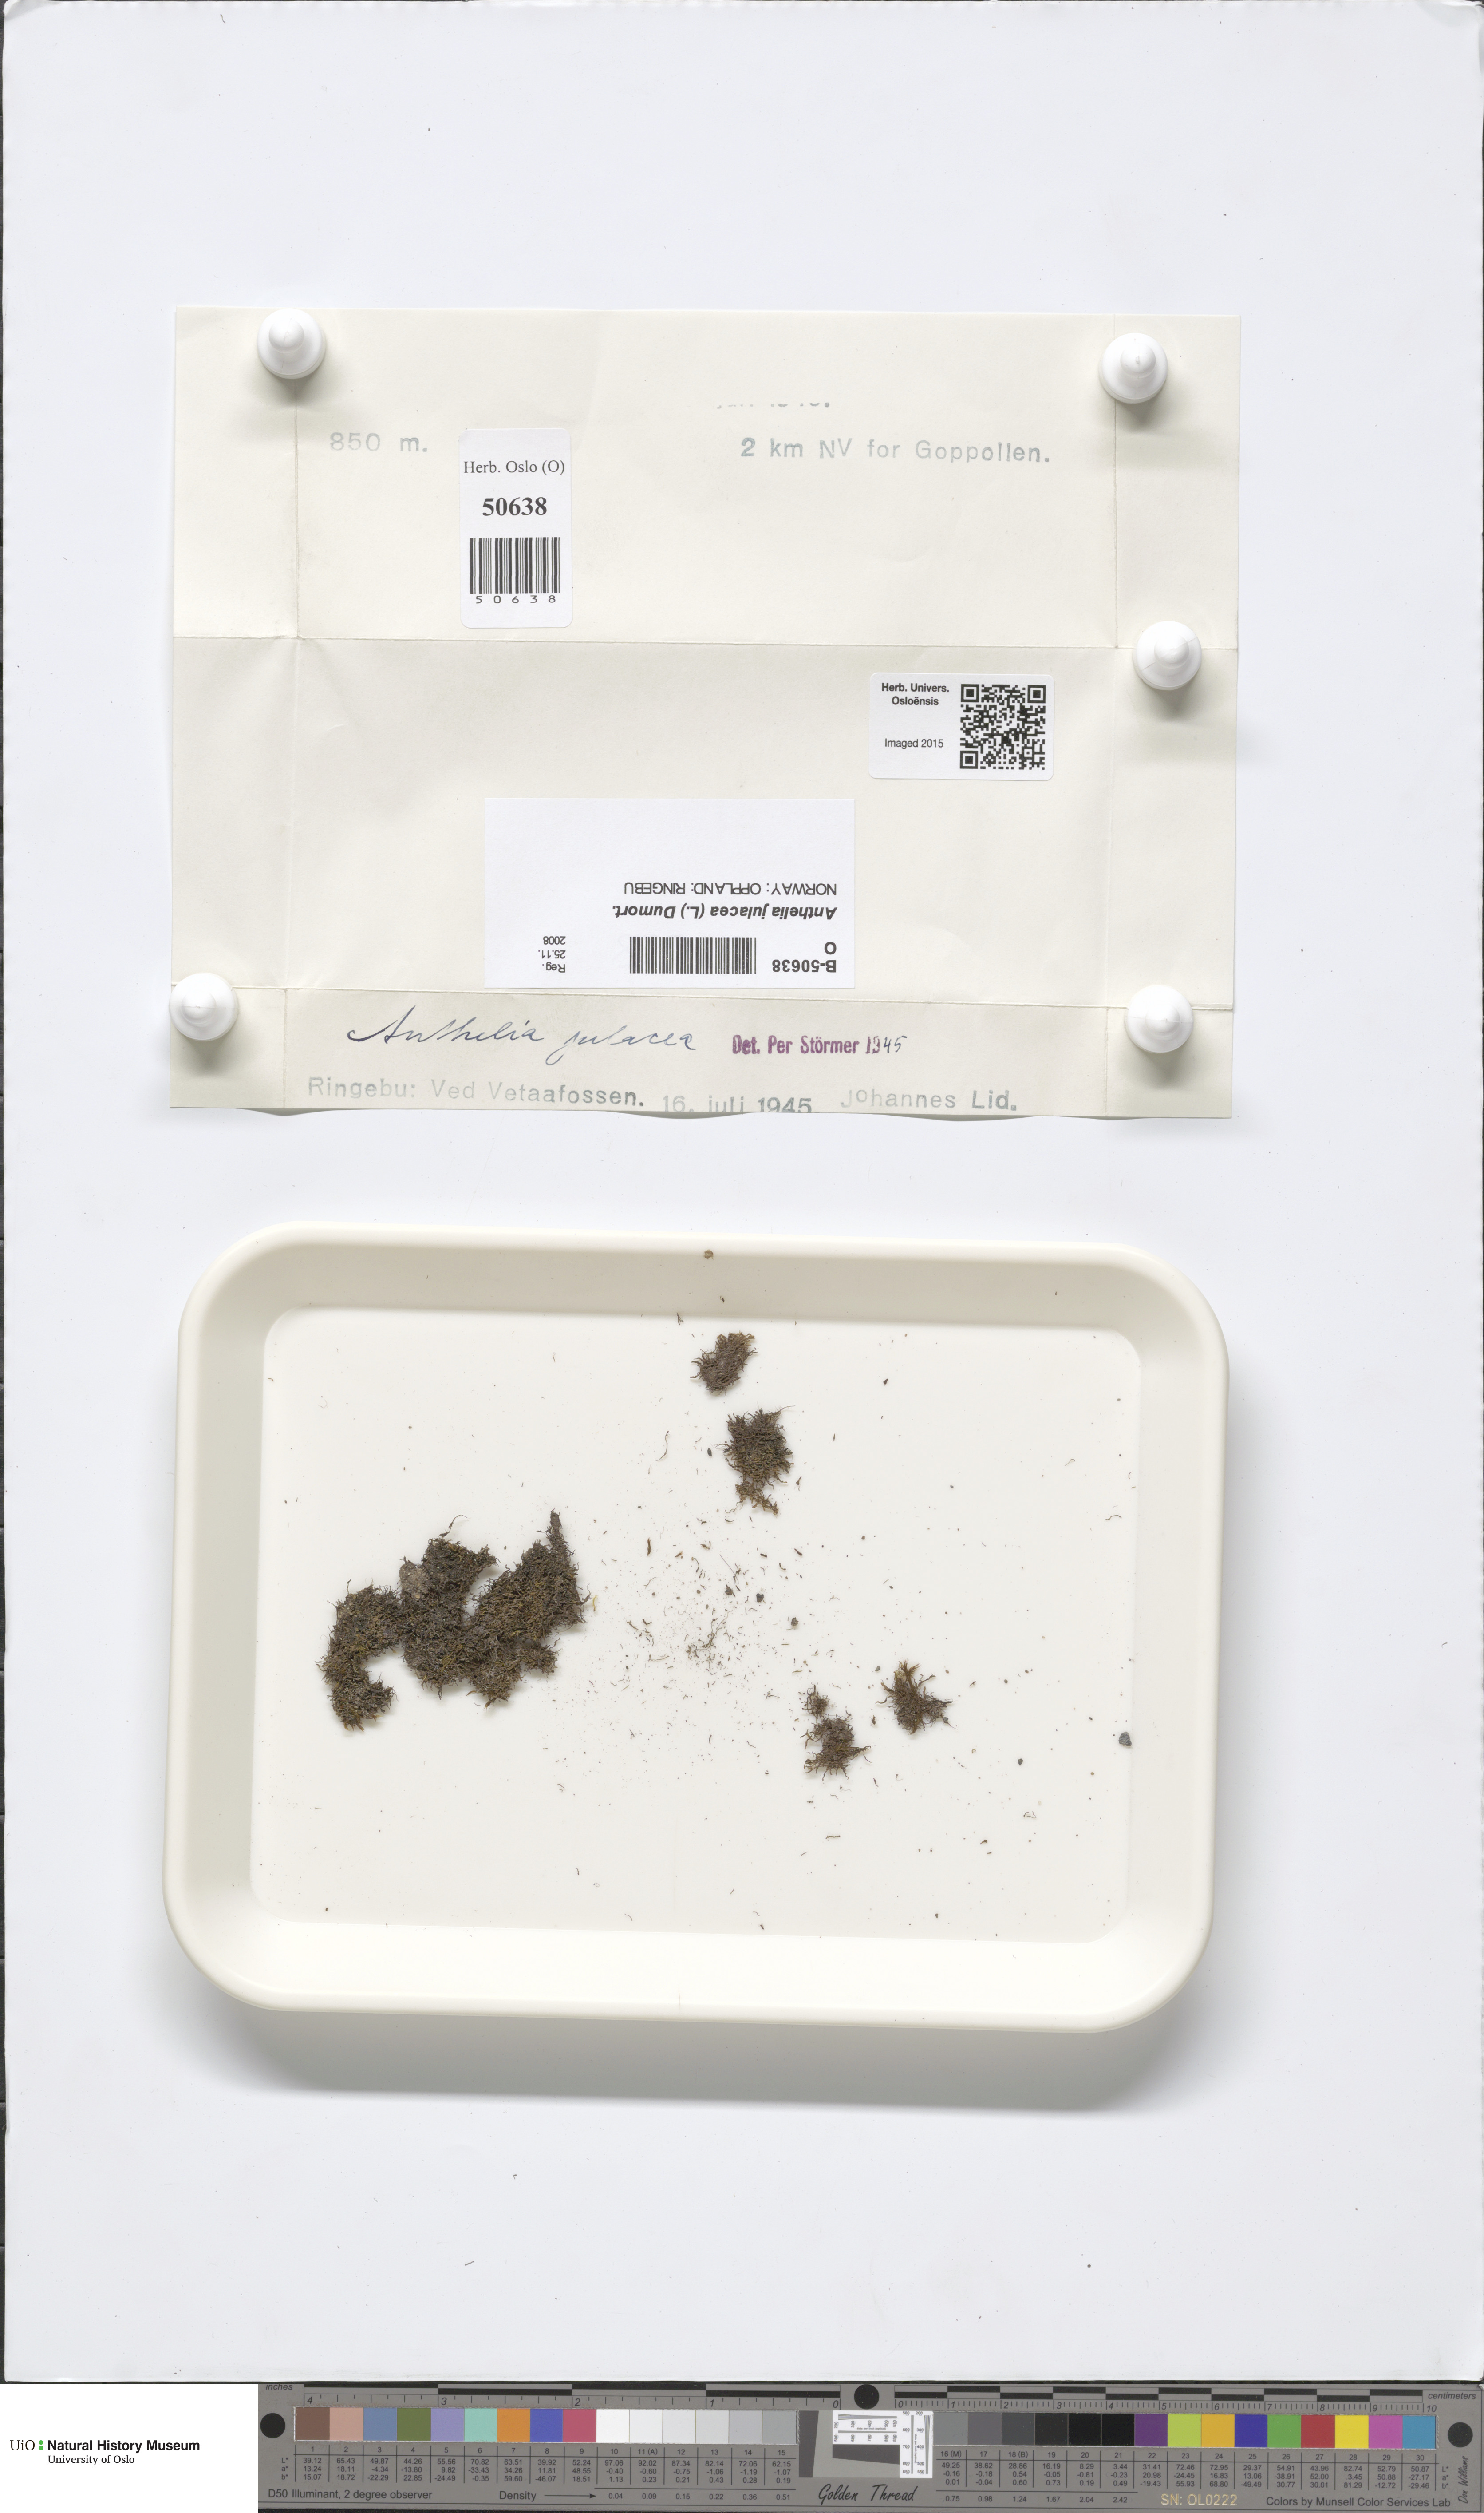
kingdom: Plantae
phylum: Marchantiophyta
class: Jungermanniopsida
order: Jungermanniales
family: Antheliaceae
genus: Anthelia
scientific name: Anthelia julacea
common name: Alpine silverwort
